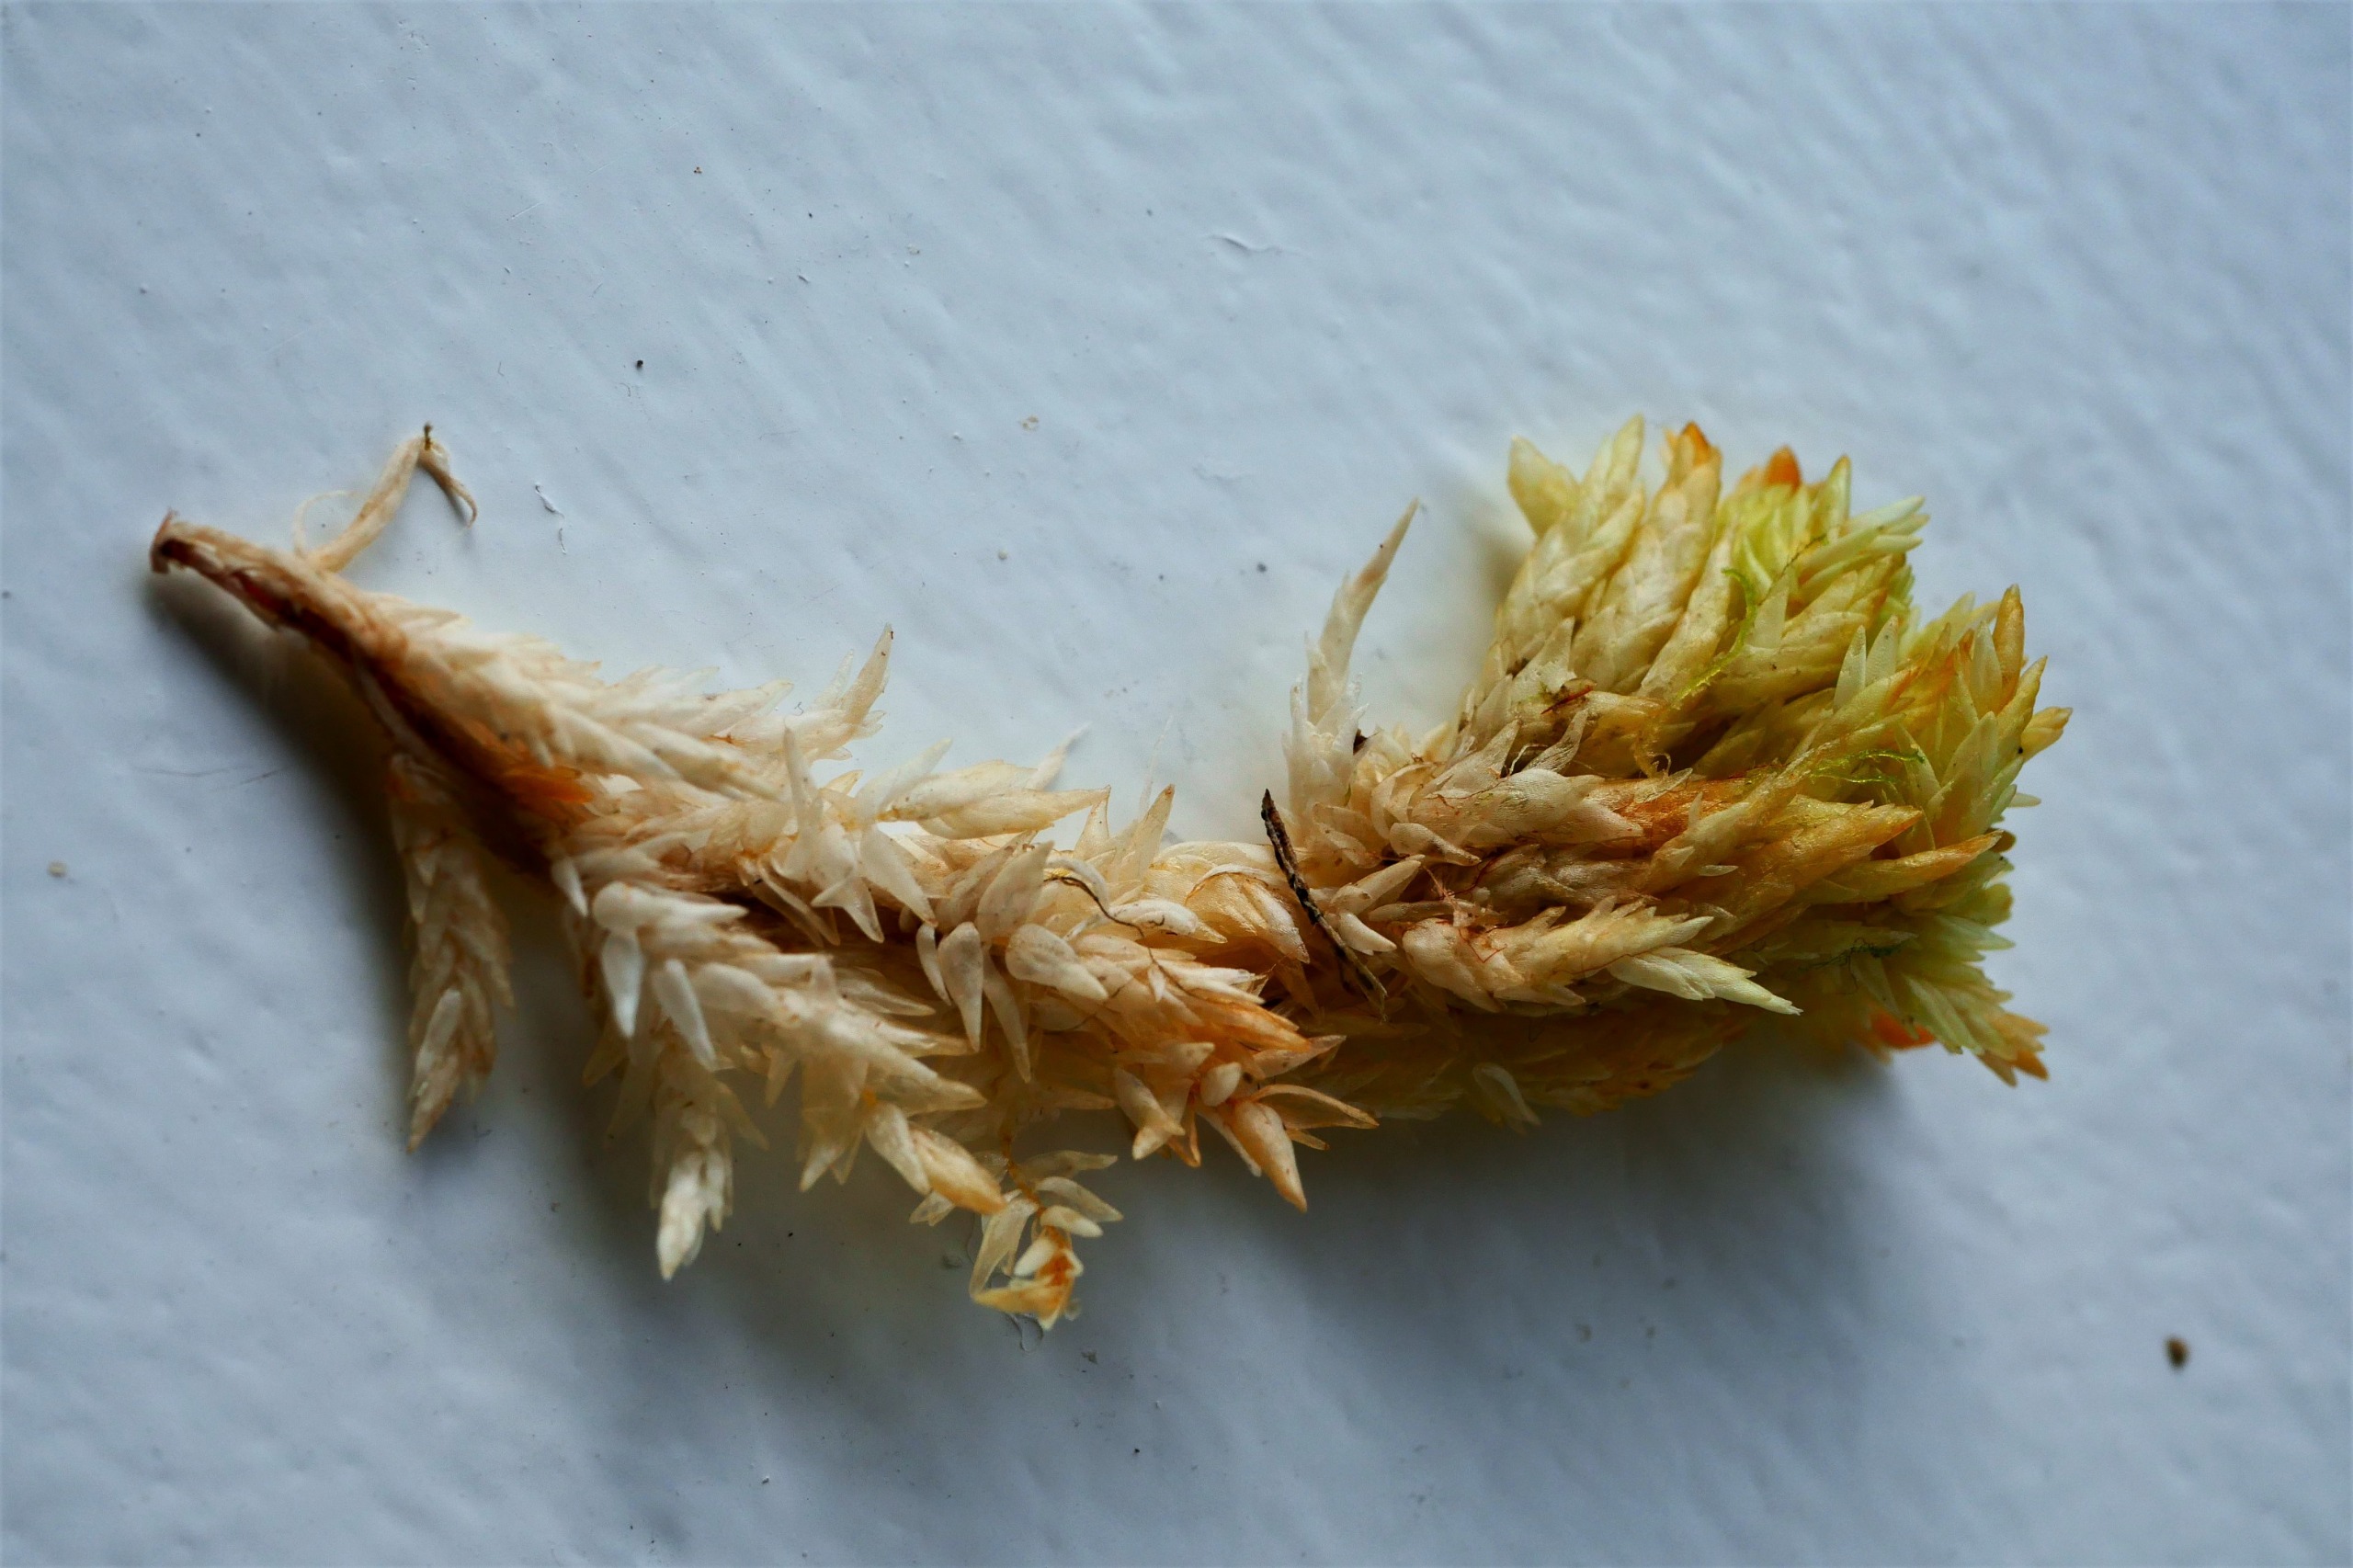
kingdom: Plantae
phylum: Bryophyta
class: Sphagnopsida
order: Sphagnales
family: Sphagnaceae
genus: Sphagnum
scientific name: Sphagnum compactum
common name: Tæt tørvemos
